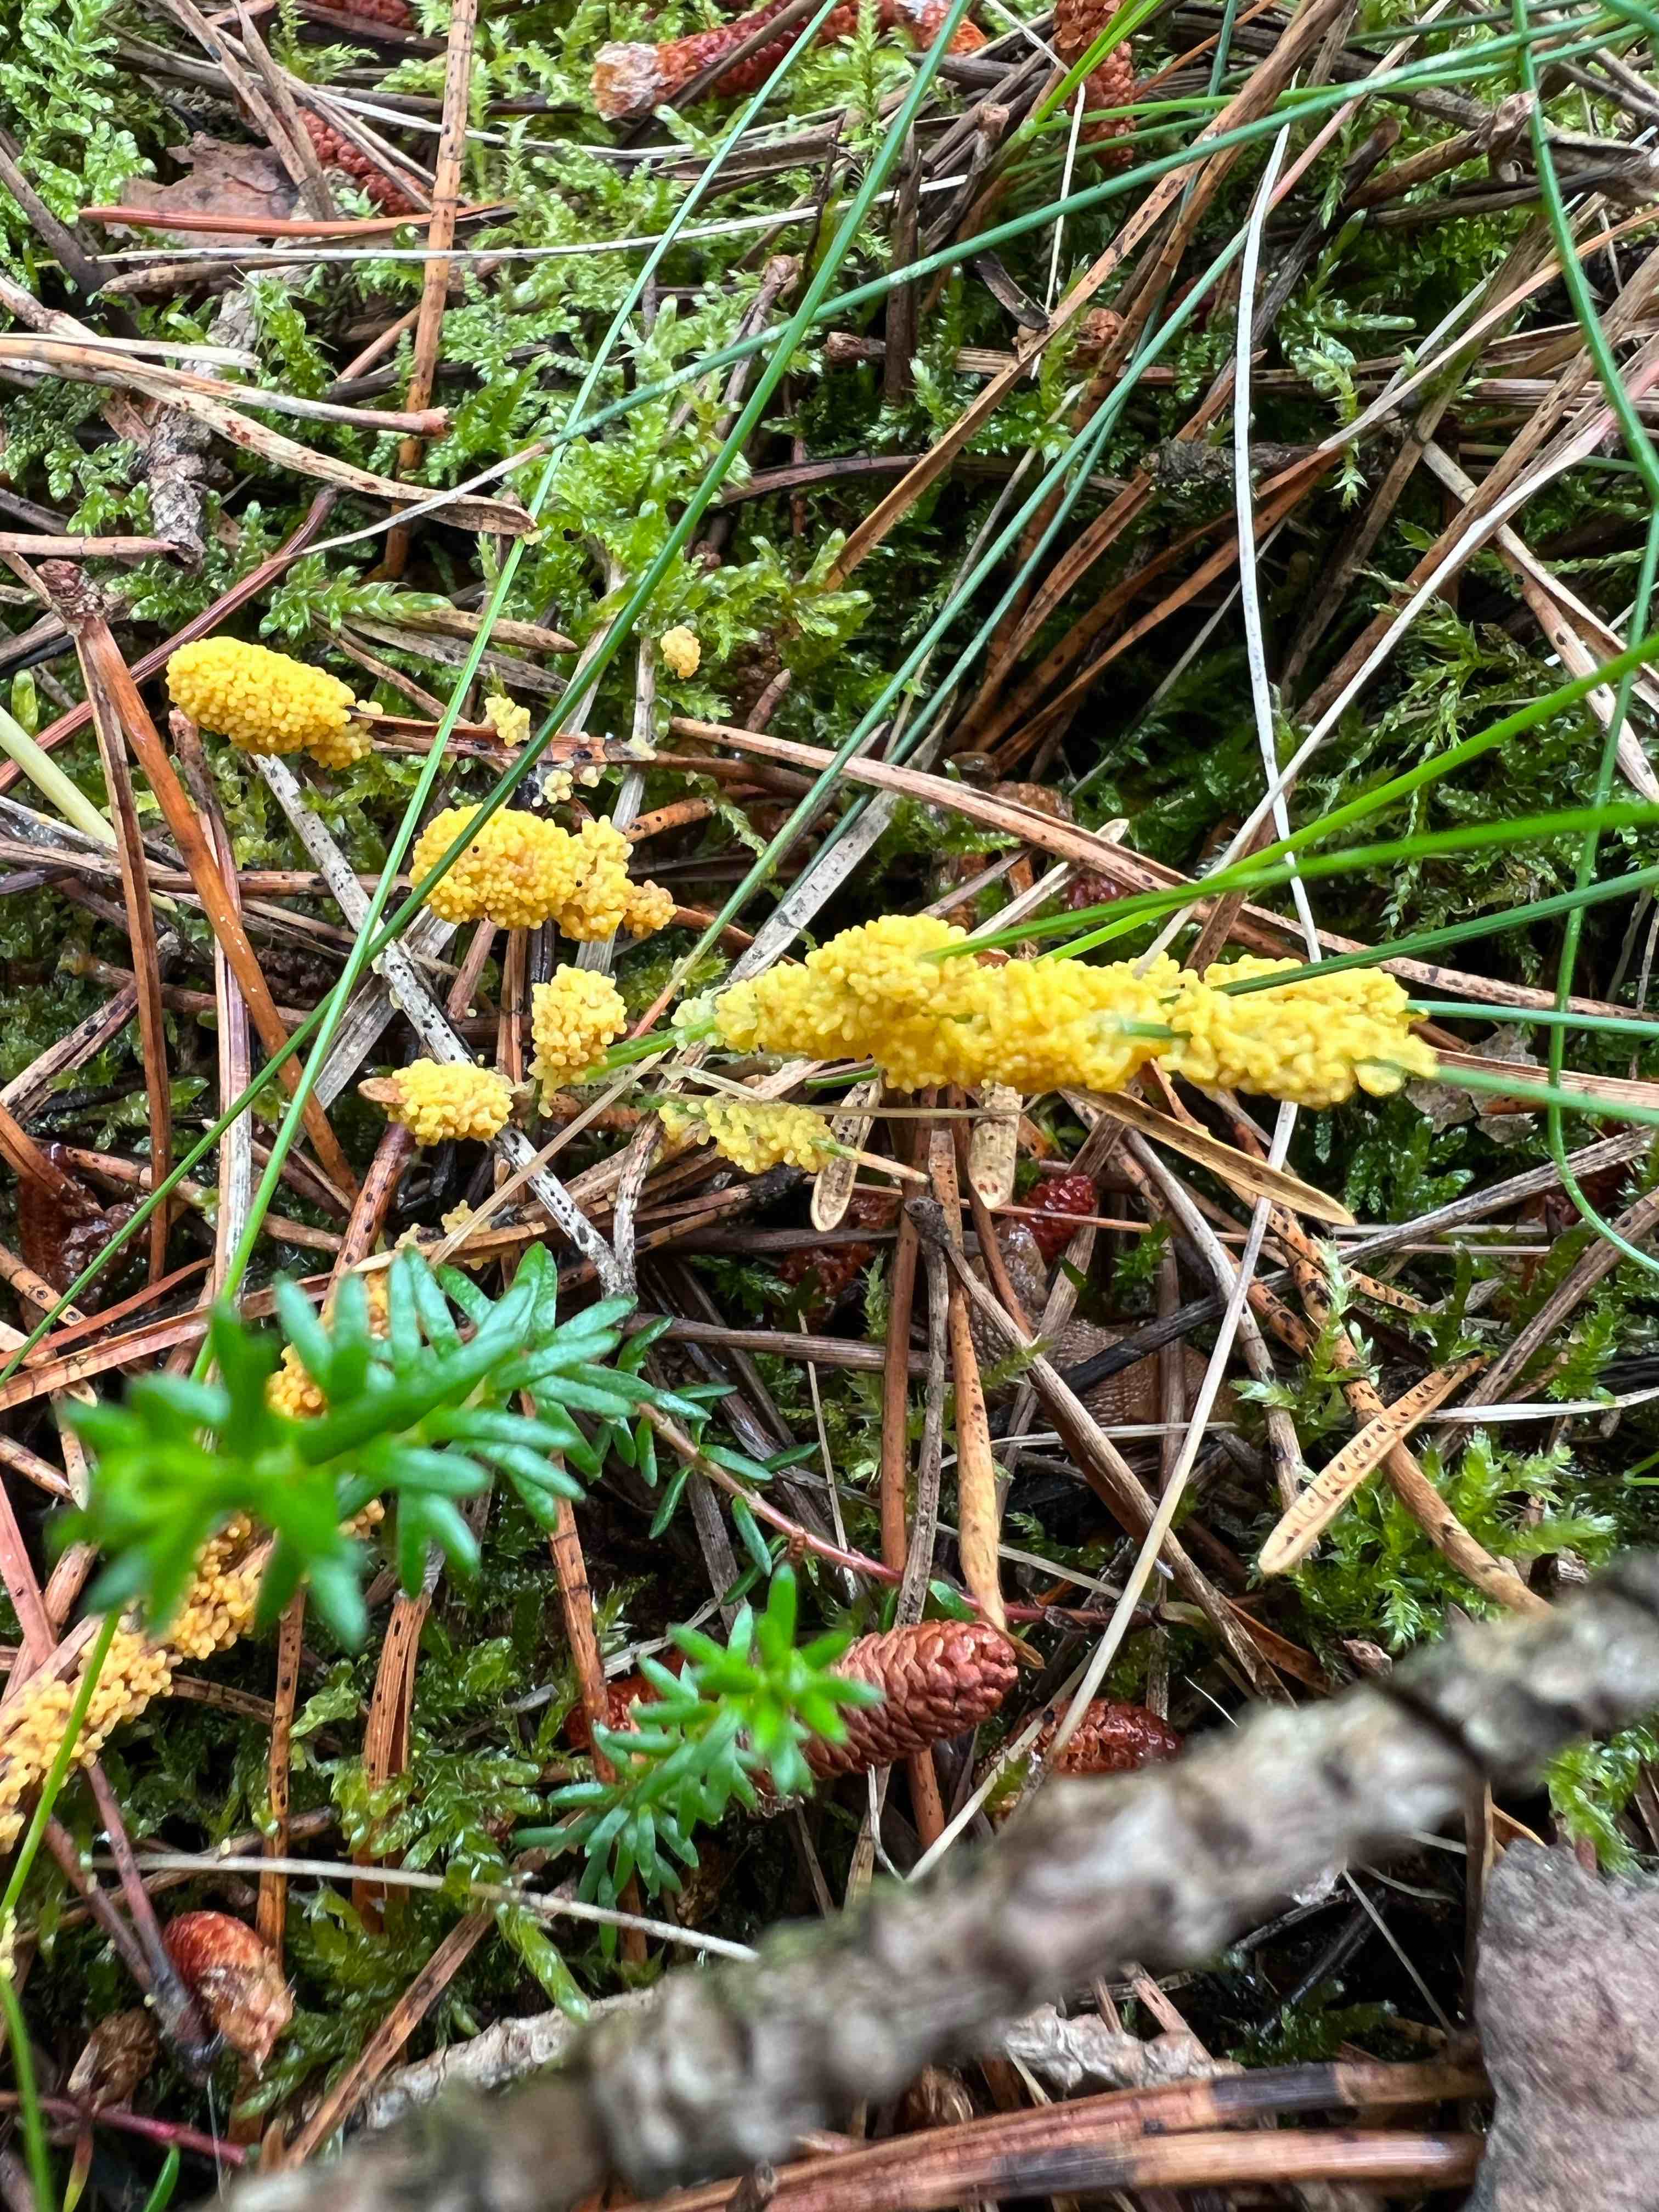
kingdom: Protozoa
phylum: Mycetozoa
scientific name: Mycetozoa
